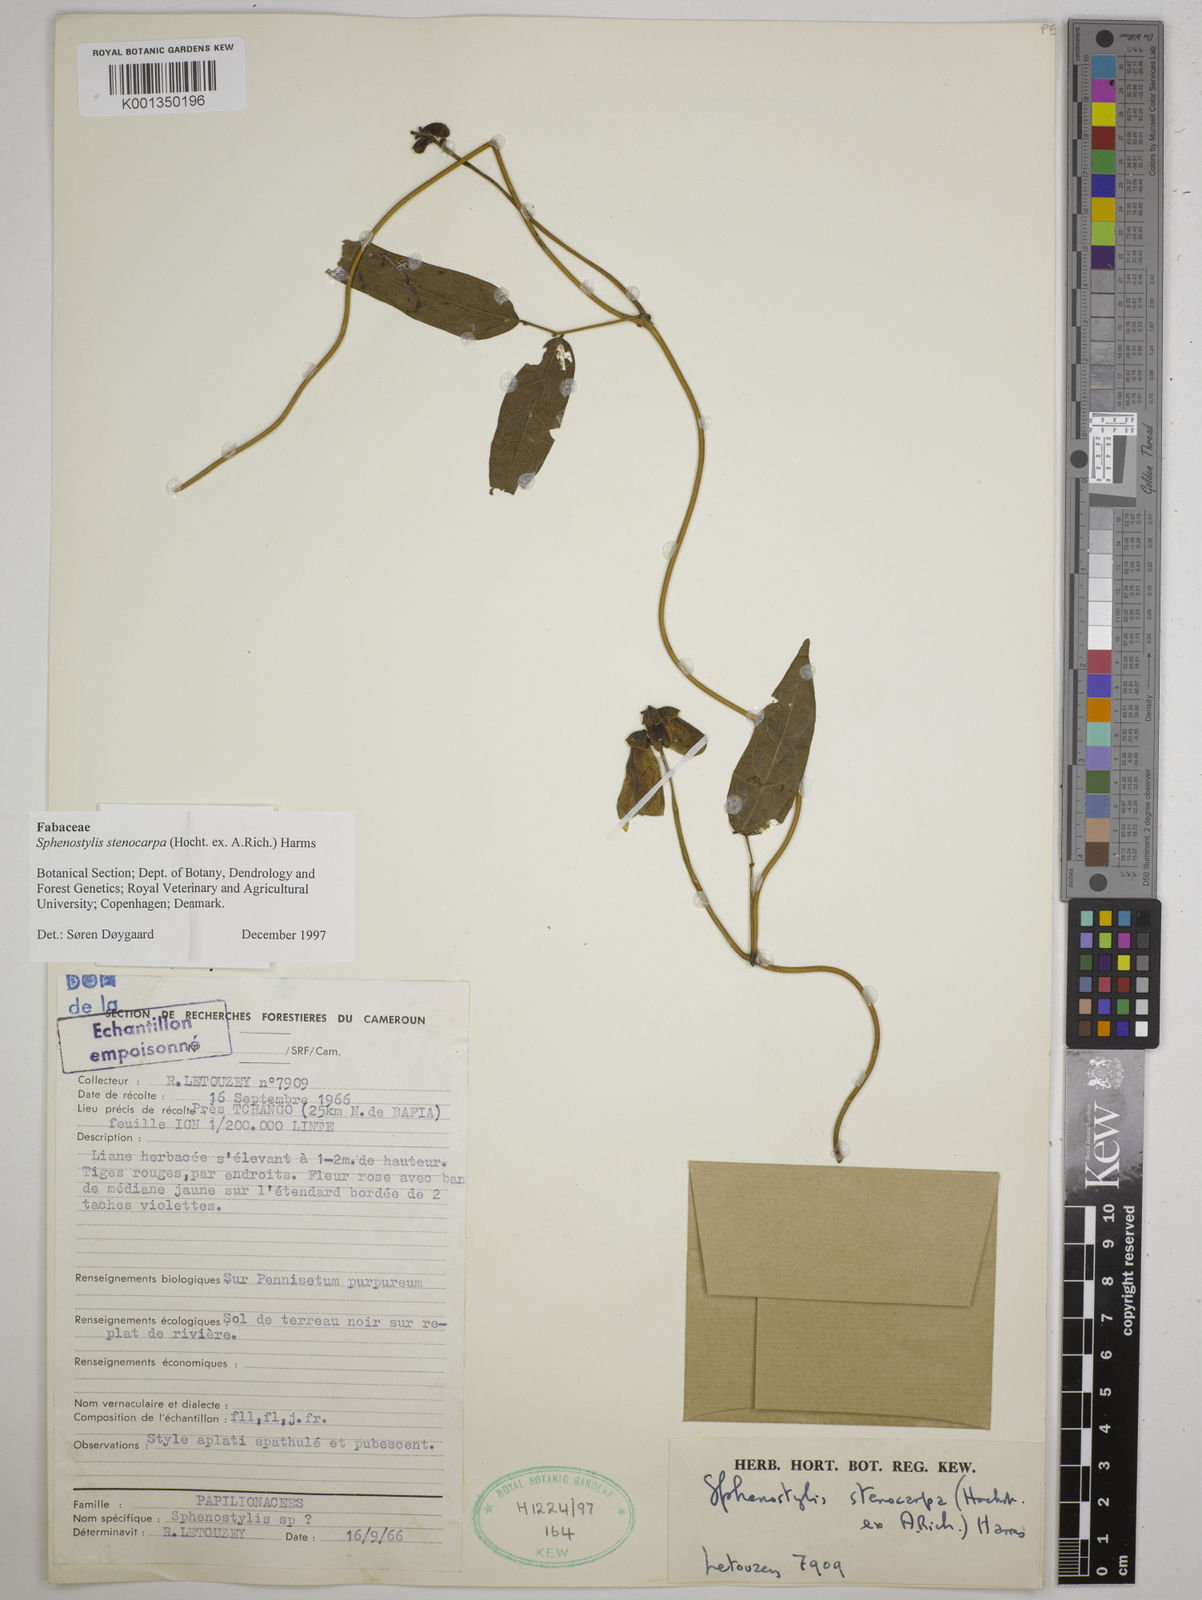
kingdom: Plantae
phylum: Tracheophyta
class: Magnoliopsida
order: Fabales
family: Fabaceae
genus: Sphenostylis
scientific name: Sphenostylis stenocarpa
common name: Yam-pea
